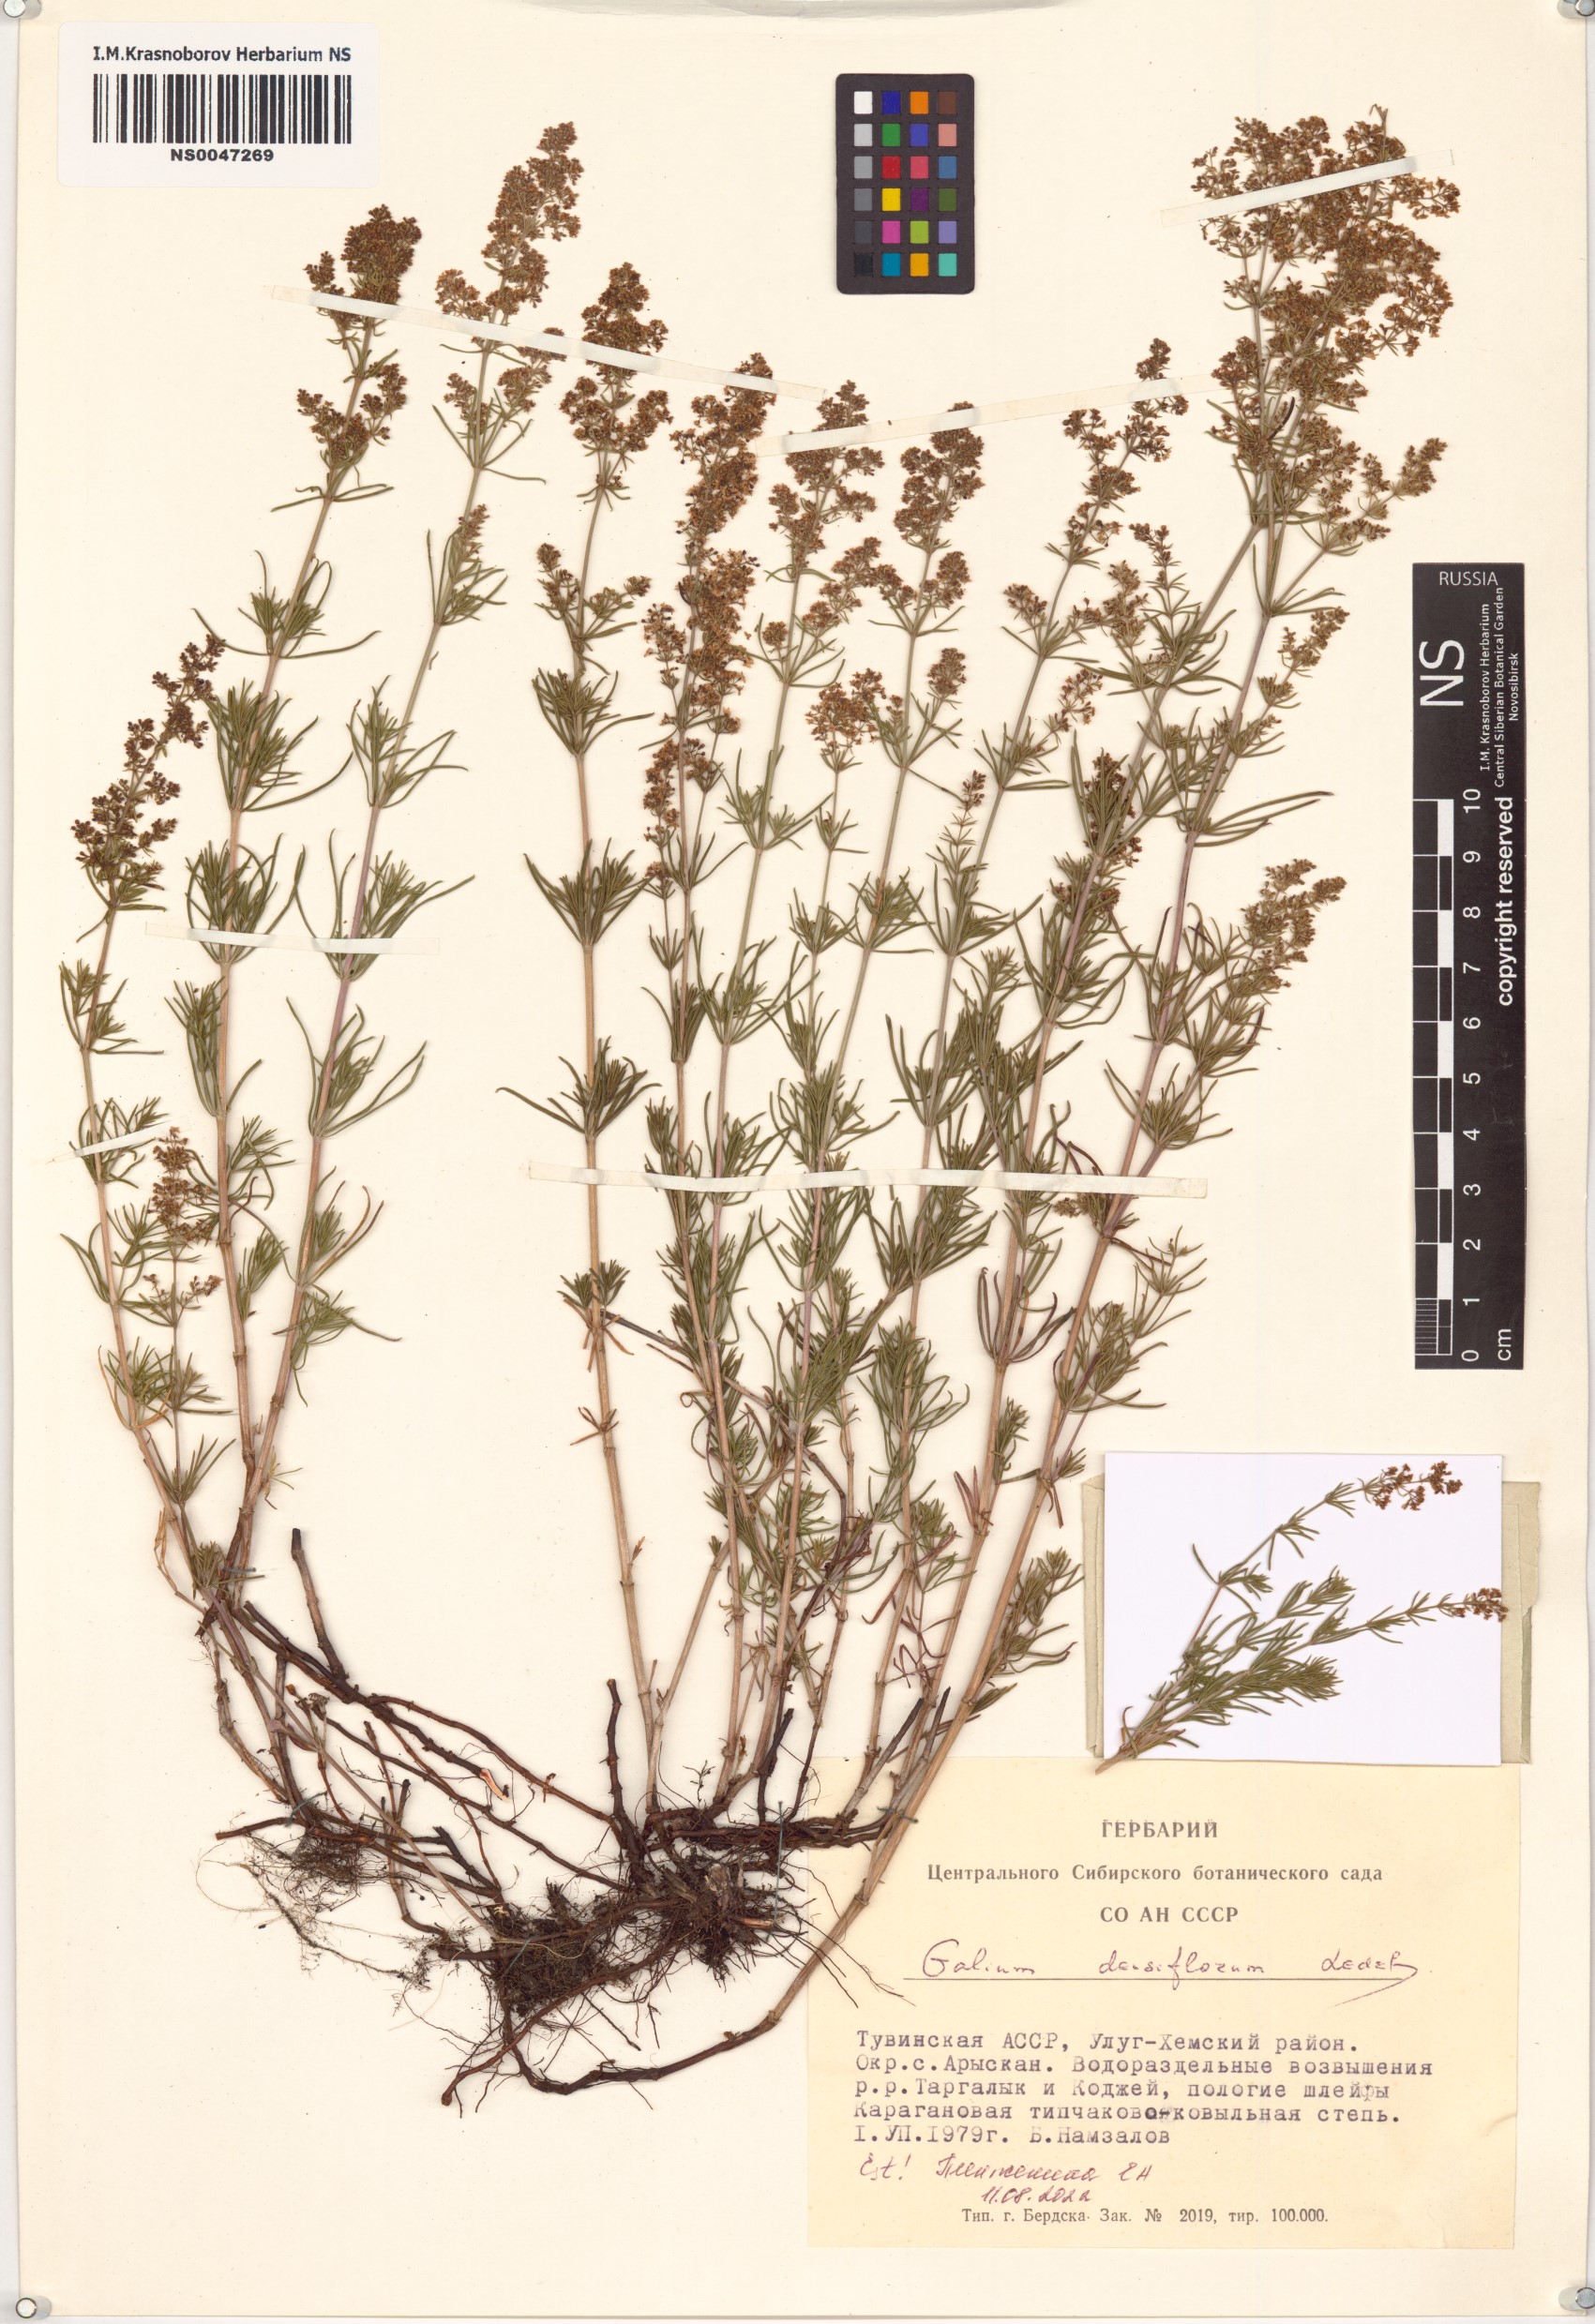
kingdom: Plantae
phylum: Tracheophyta
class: Magnoliopsida
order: Gentianales
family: Rubiaceae
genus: Galium
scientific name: Galium densiflorum
